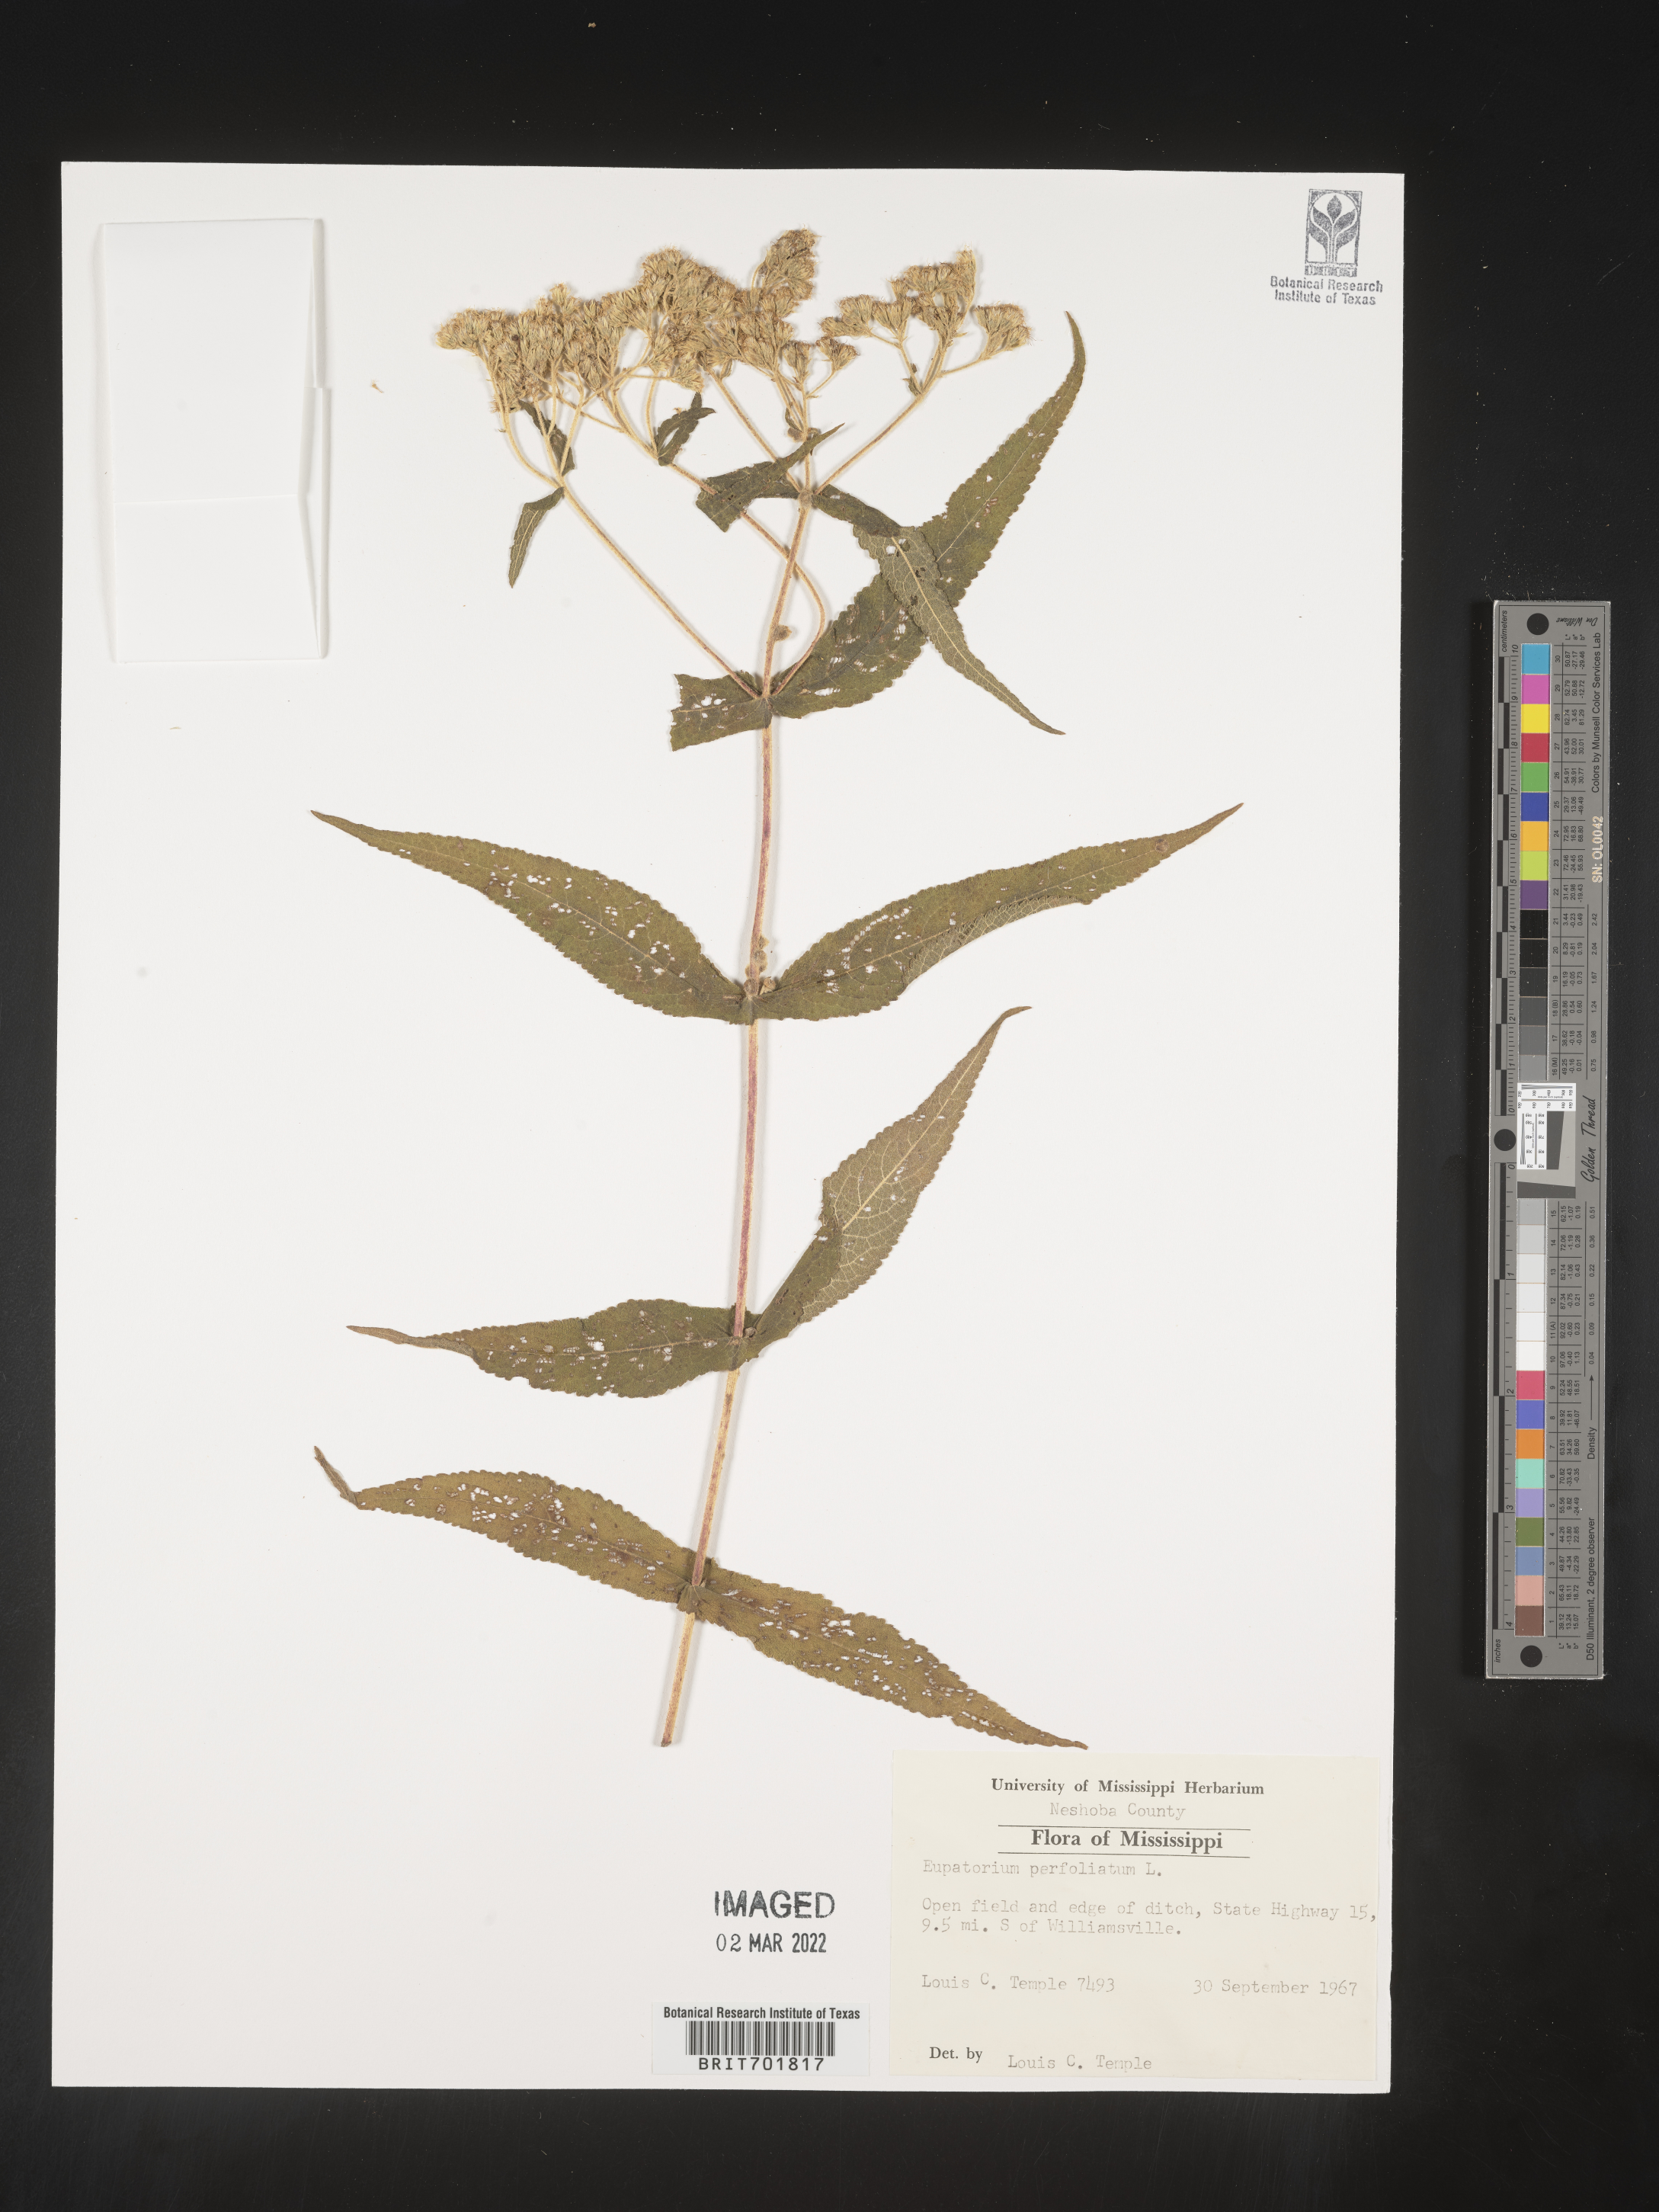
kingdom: Plantae
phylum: Tracheophyta
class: Magnoliopsida
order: Asterales
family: Asteraceae
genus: Eupatorium
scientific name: Eupatorium perfoliatum
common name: Boneset
